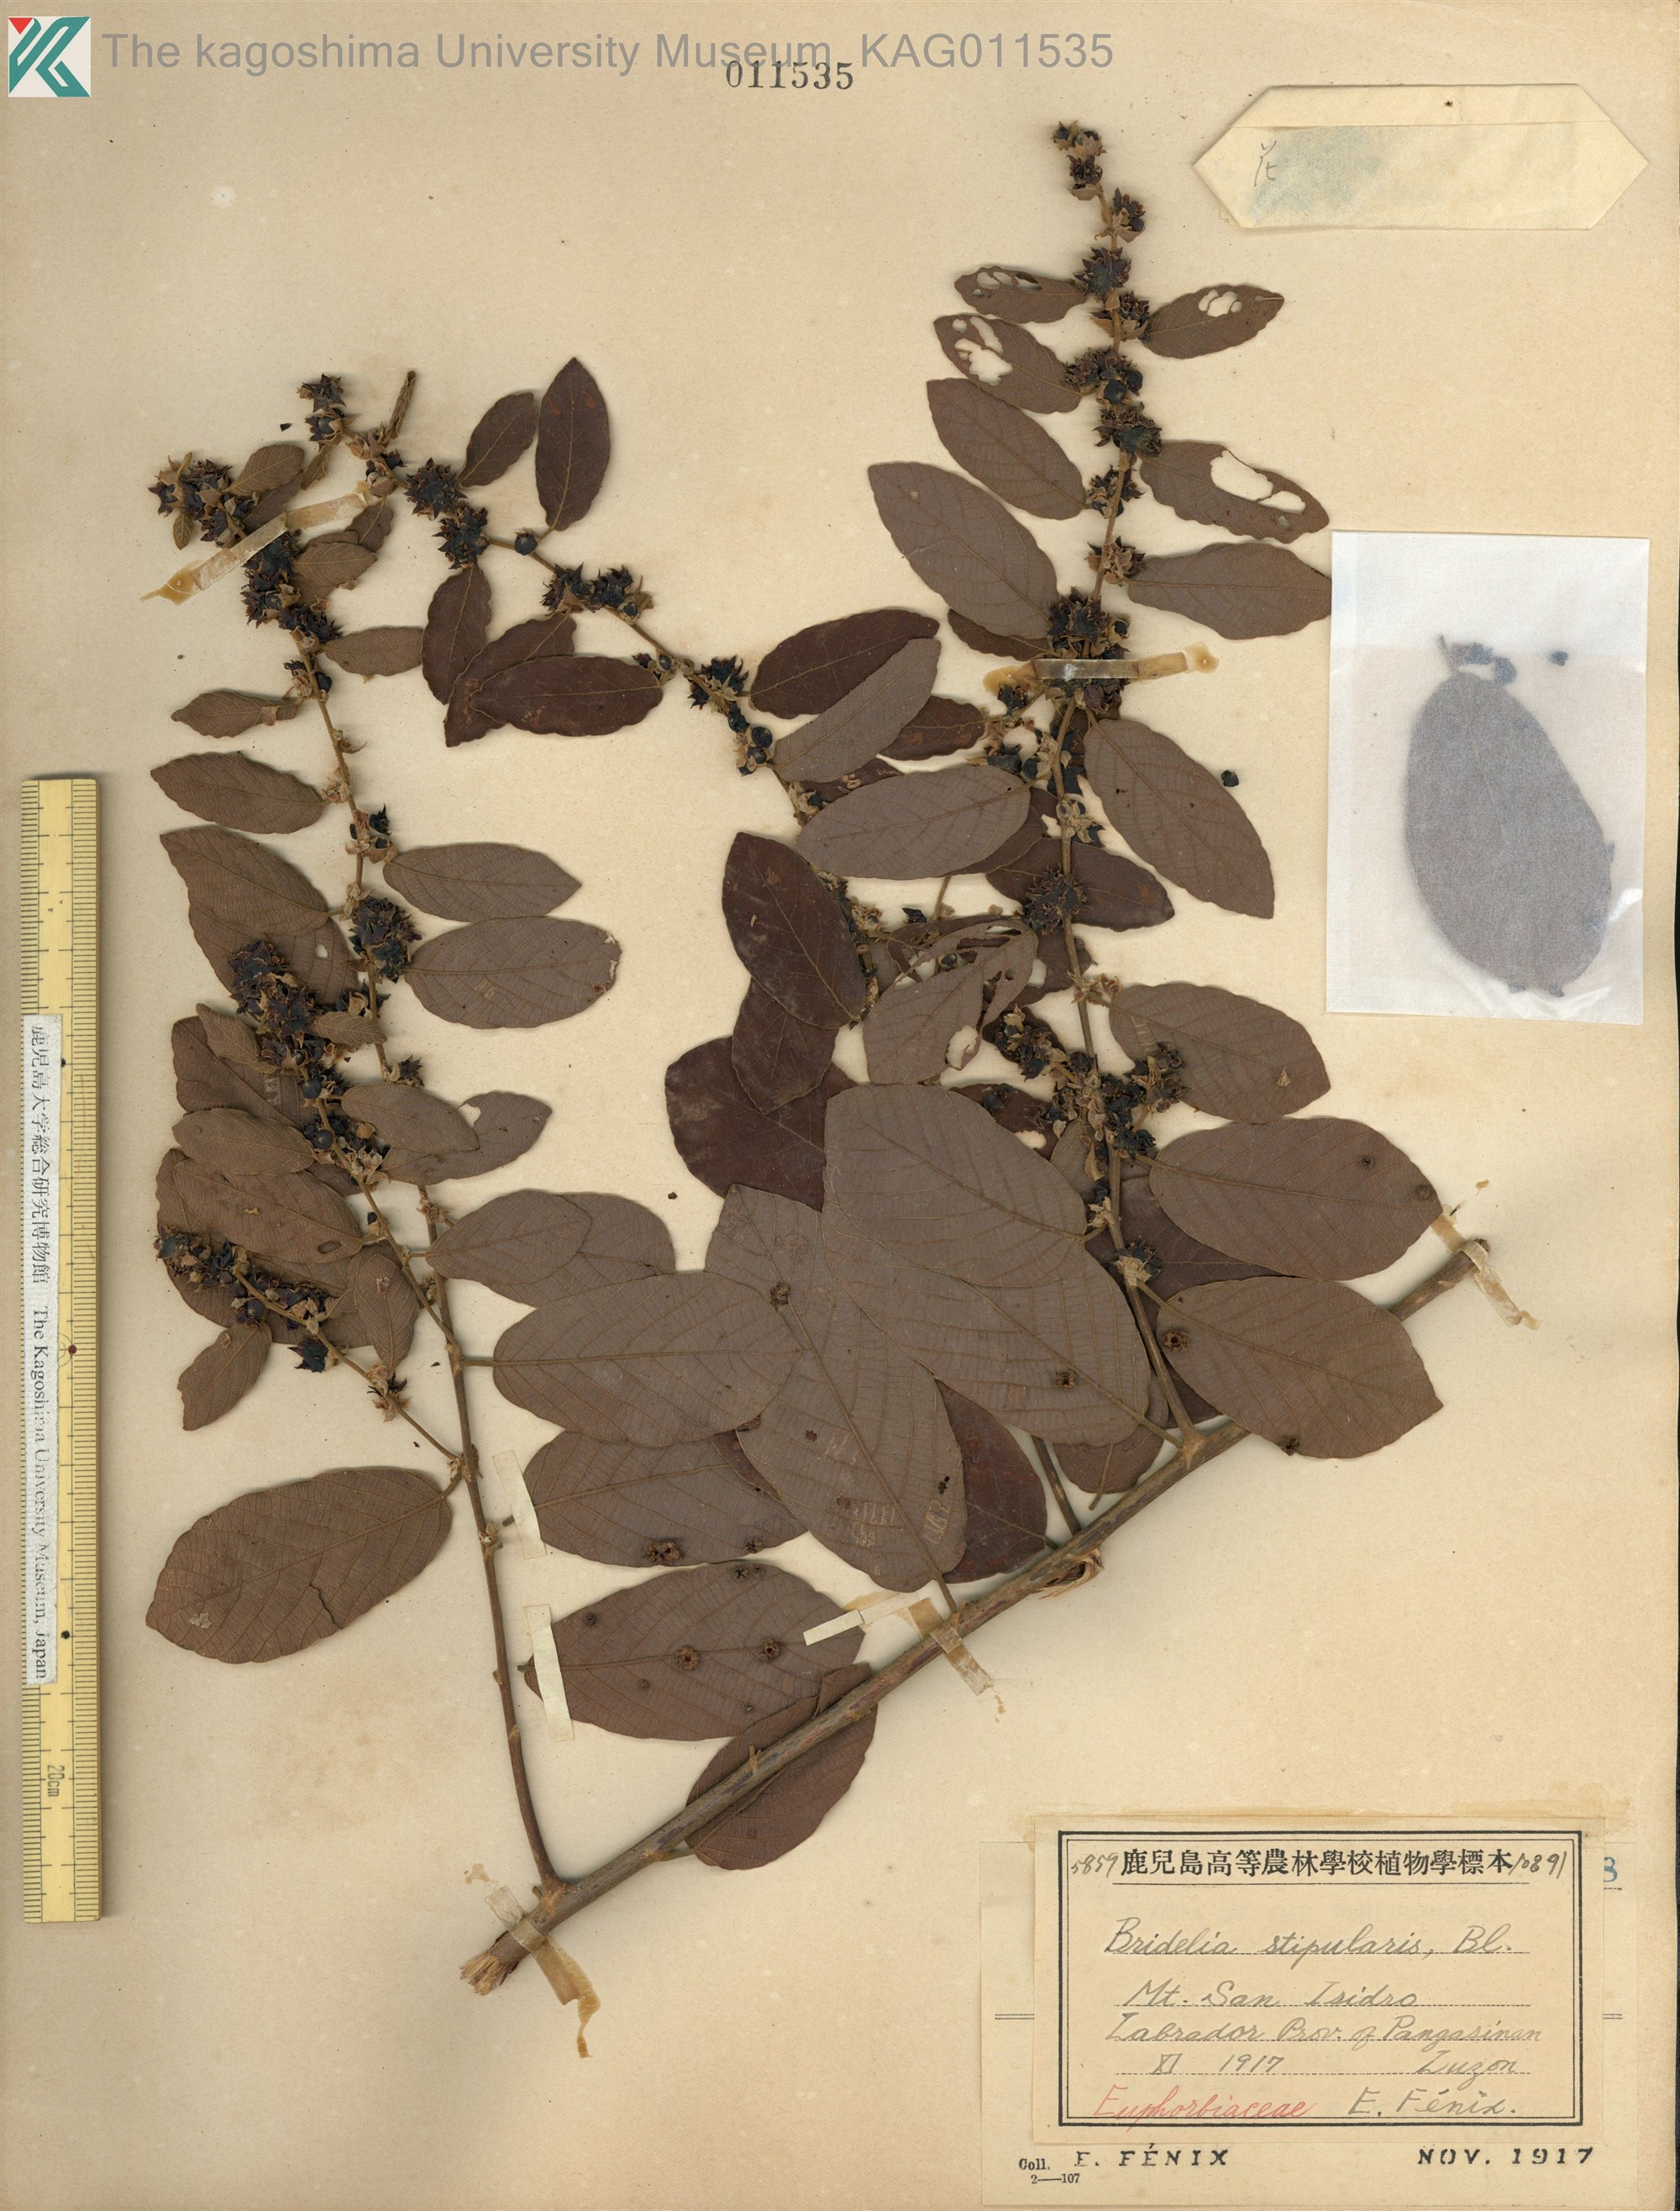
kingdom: Plantae
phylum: Tracheophyta
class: Magnoliopsida
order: Malpighiales
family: Phyllanthaceae
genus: Bridelia
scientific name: Bridelia stipularis
